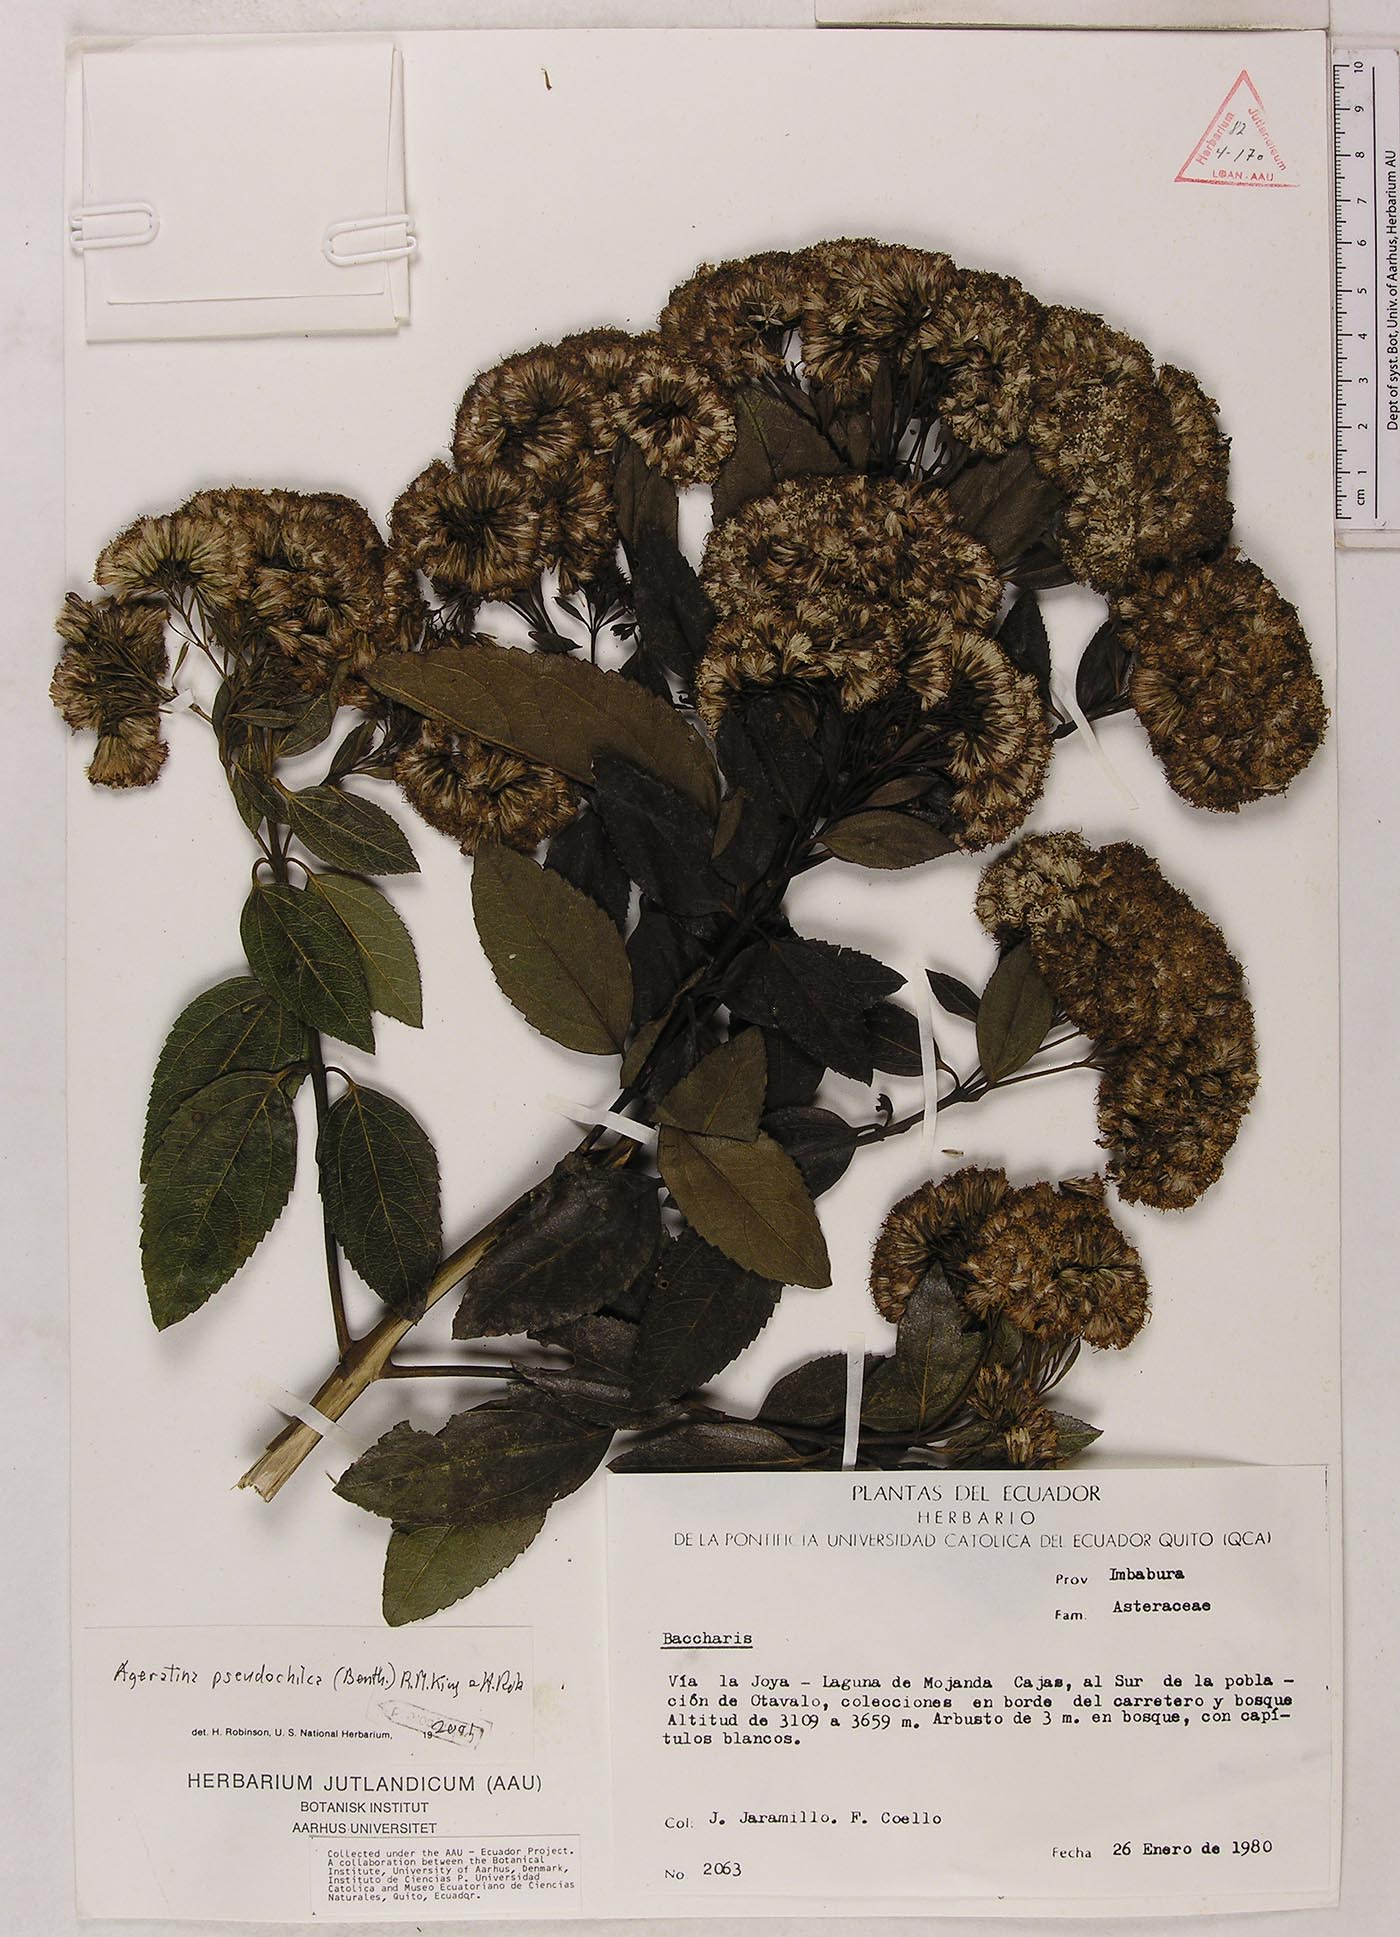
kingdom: Plantae
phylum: Tracheophyta
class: Magnoliopsida
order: Asterales
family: Asteraceae
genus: Ageratina
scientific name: Ageratina pseudochilca
